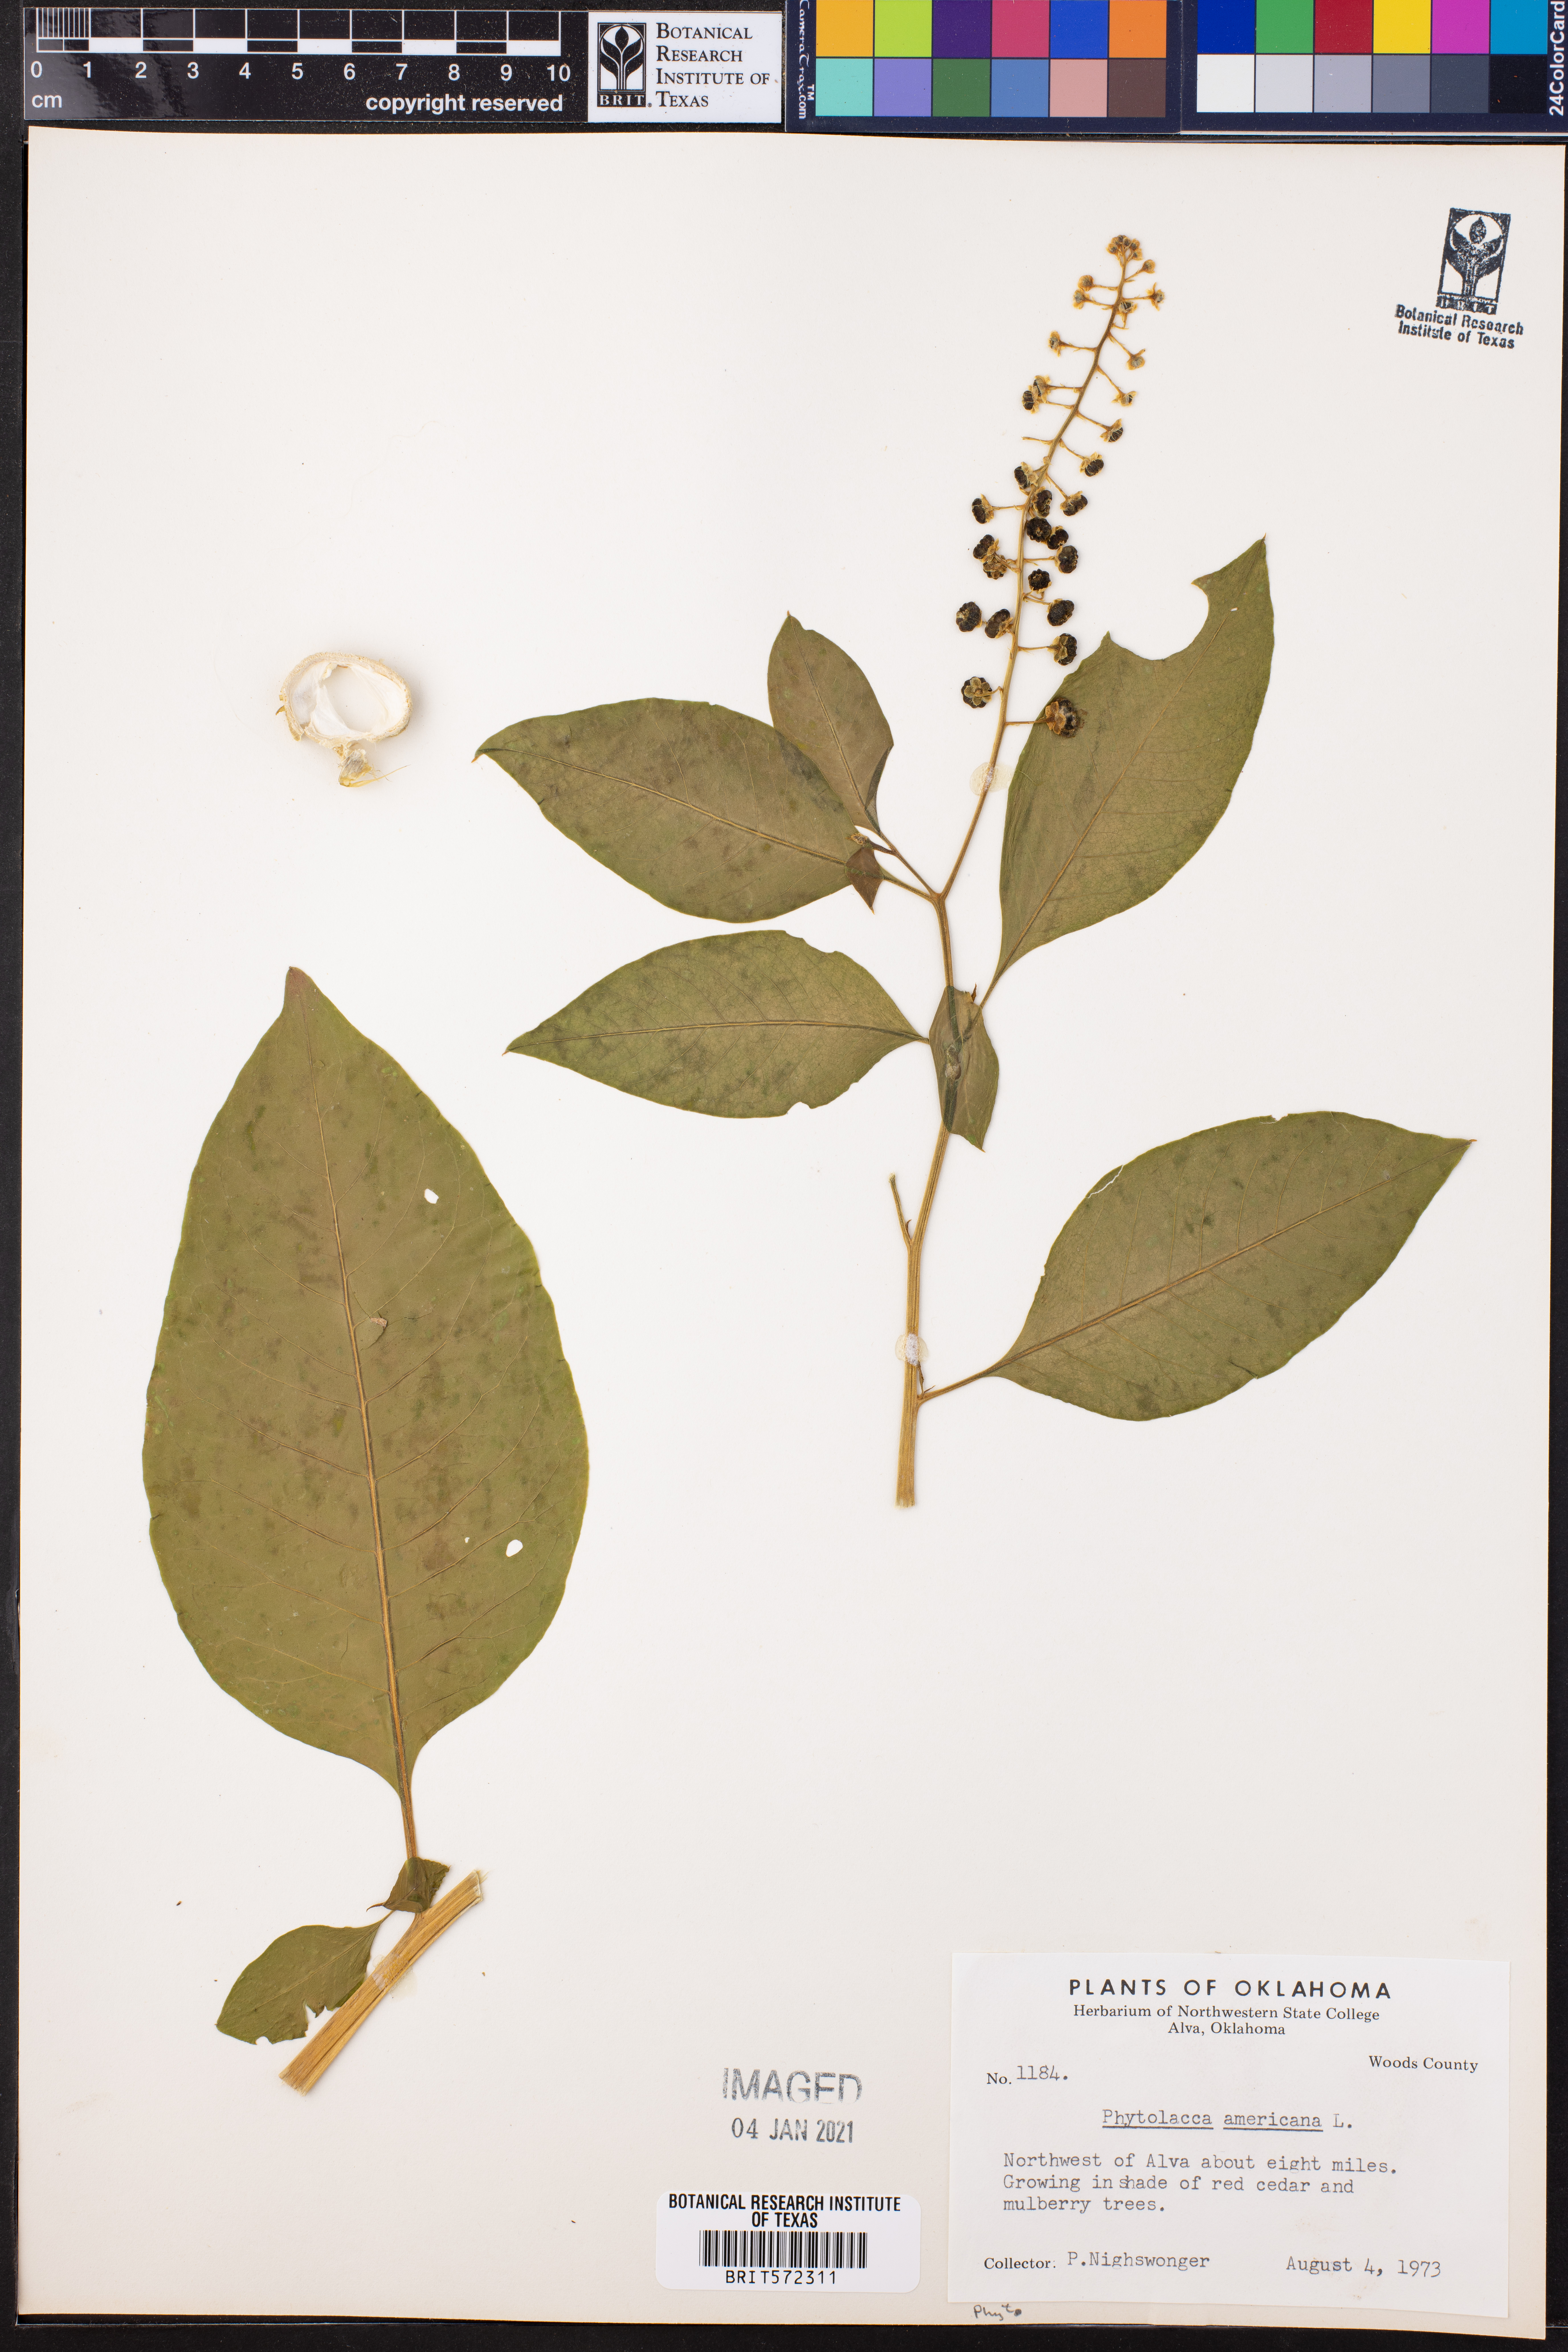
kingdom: Plantae
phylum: Tracheophyta
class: Magnoliopsida
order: Caryophyllales
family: Phytolaccaceae
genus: Phytolacca
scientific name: Phytolacca americana
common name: American pokeweed
